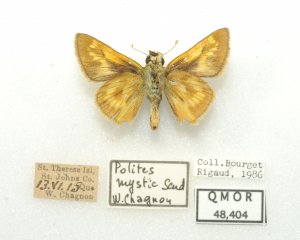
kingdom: Animalia
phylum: Arthropoda
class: Insecta
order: Lepidoptera
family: Hesperiidae
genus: Polites
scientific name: Polites
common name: Long Dash Skipper
